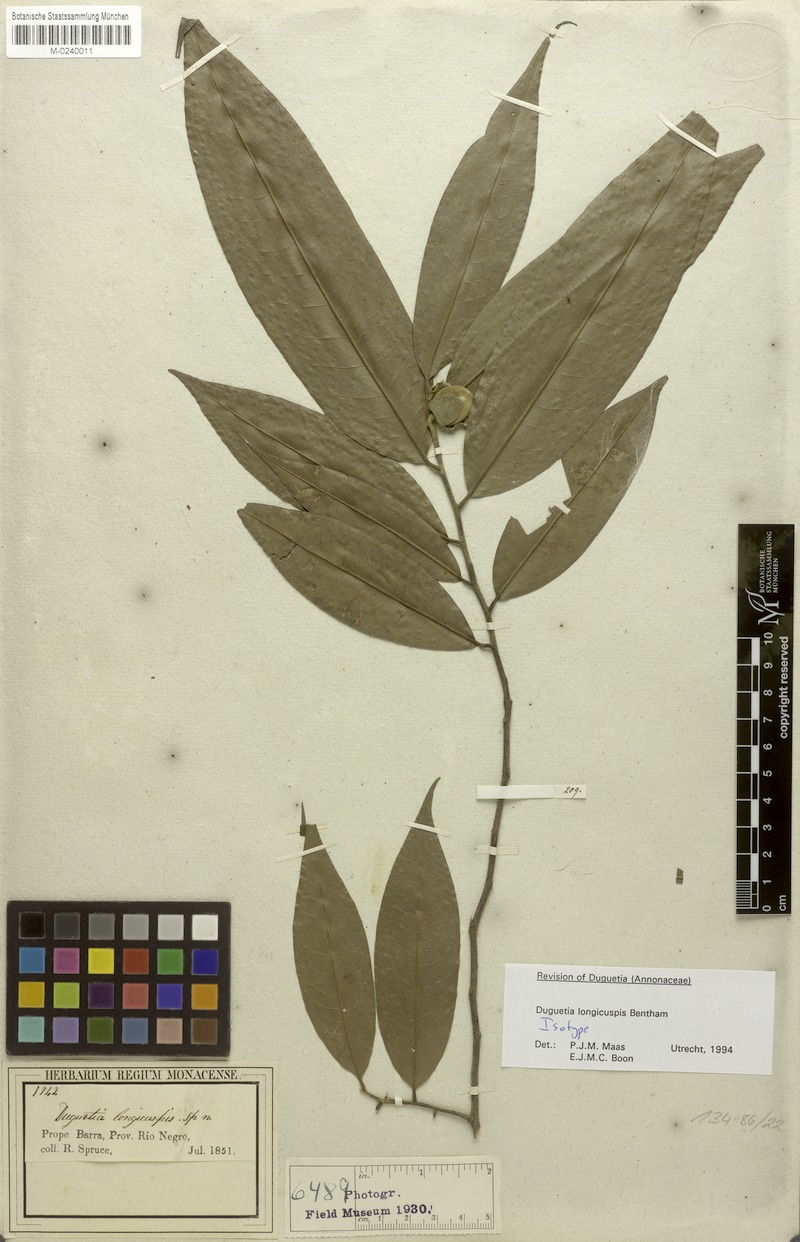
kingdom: Plantae
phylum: Tracheophyta
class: Magnoliopsida
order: Magnoliales
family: Annonaceae
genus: Duguetia
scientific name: Duguetia longicuspis
